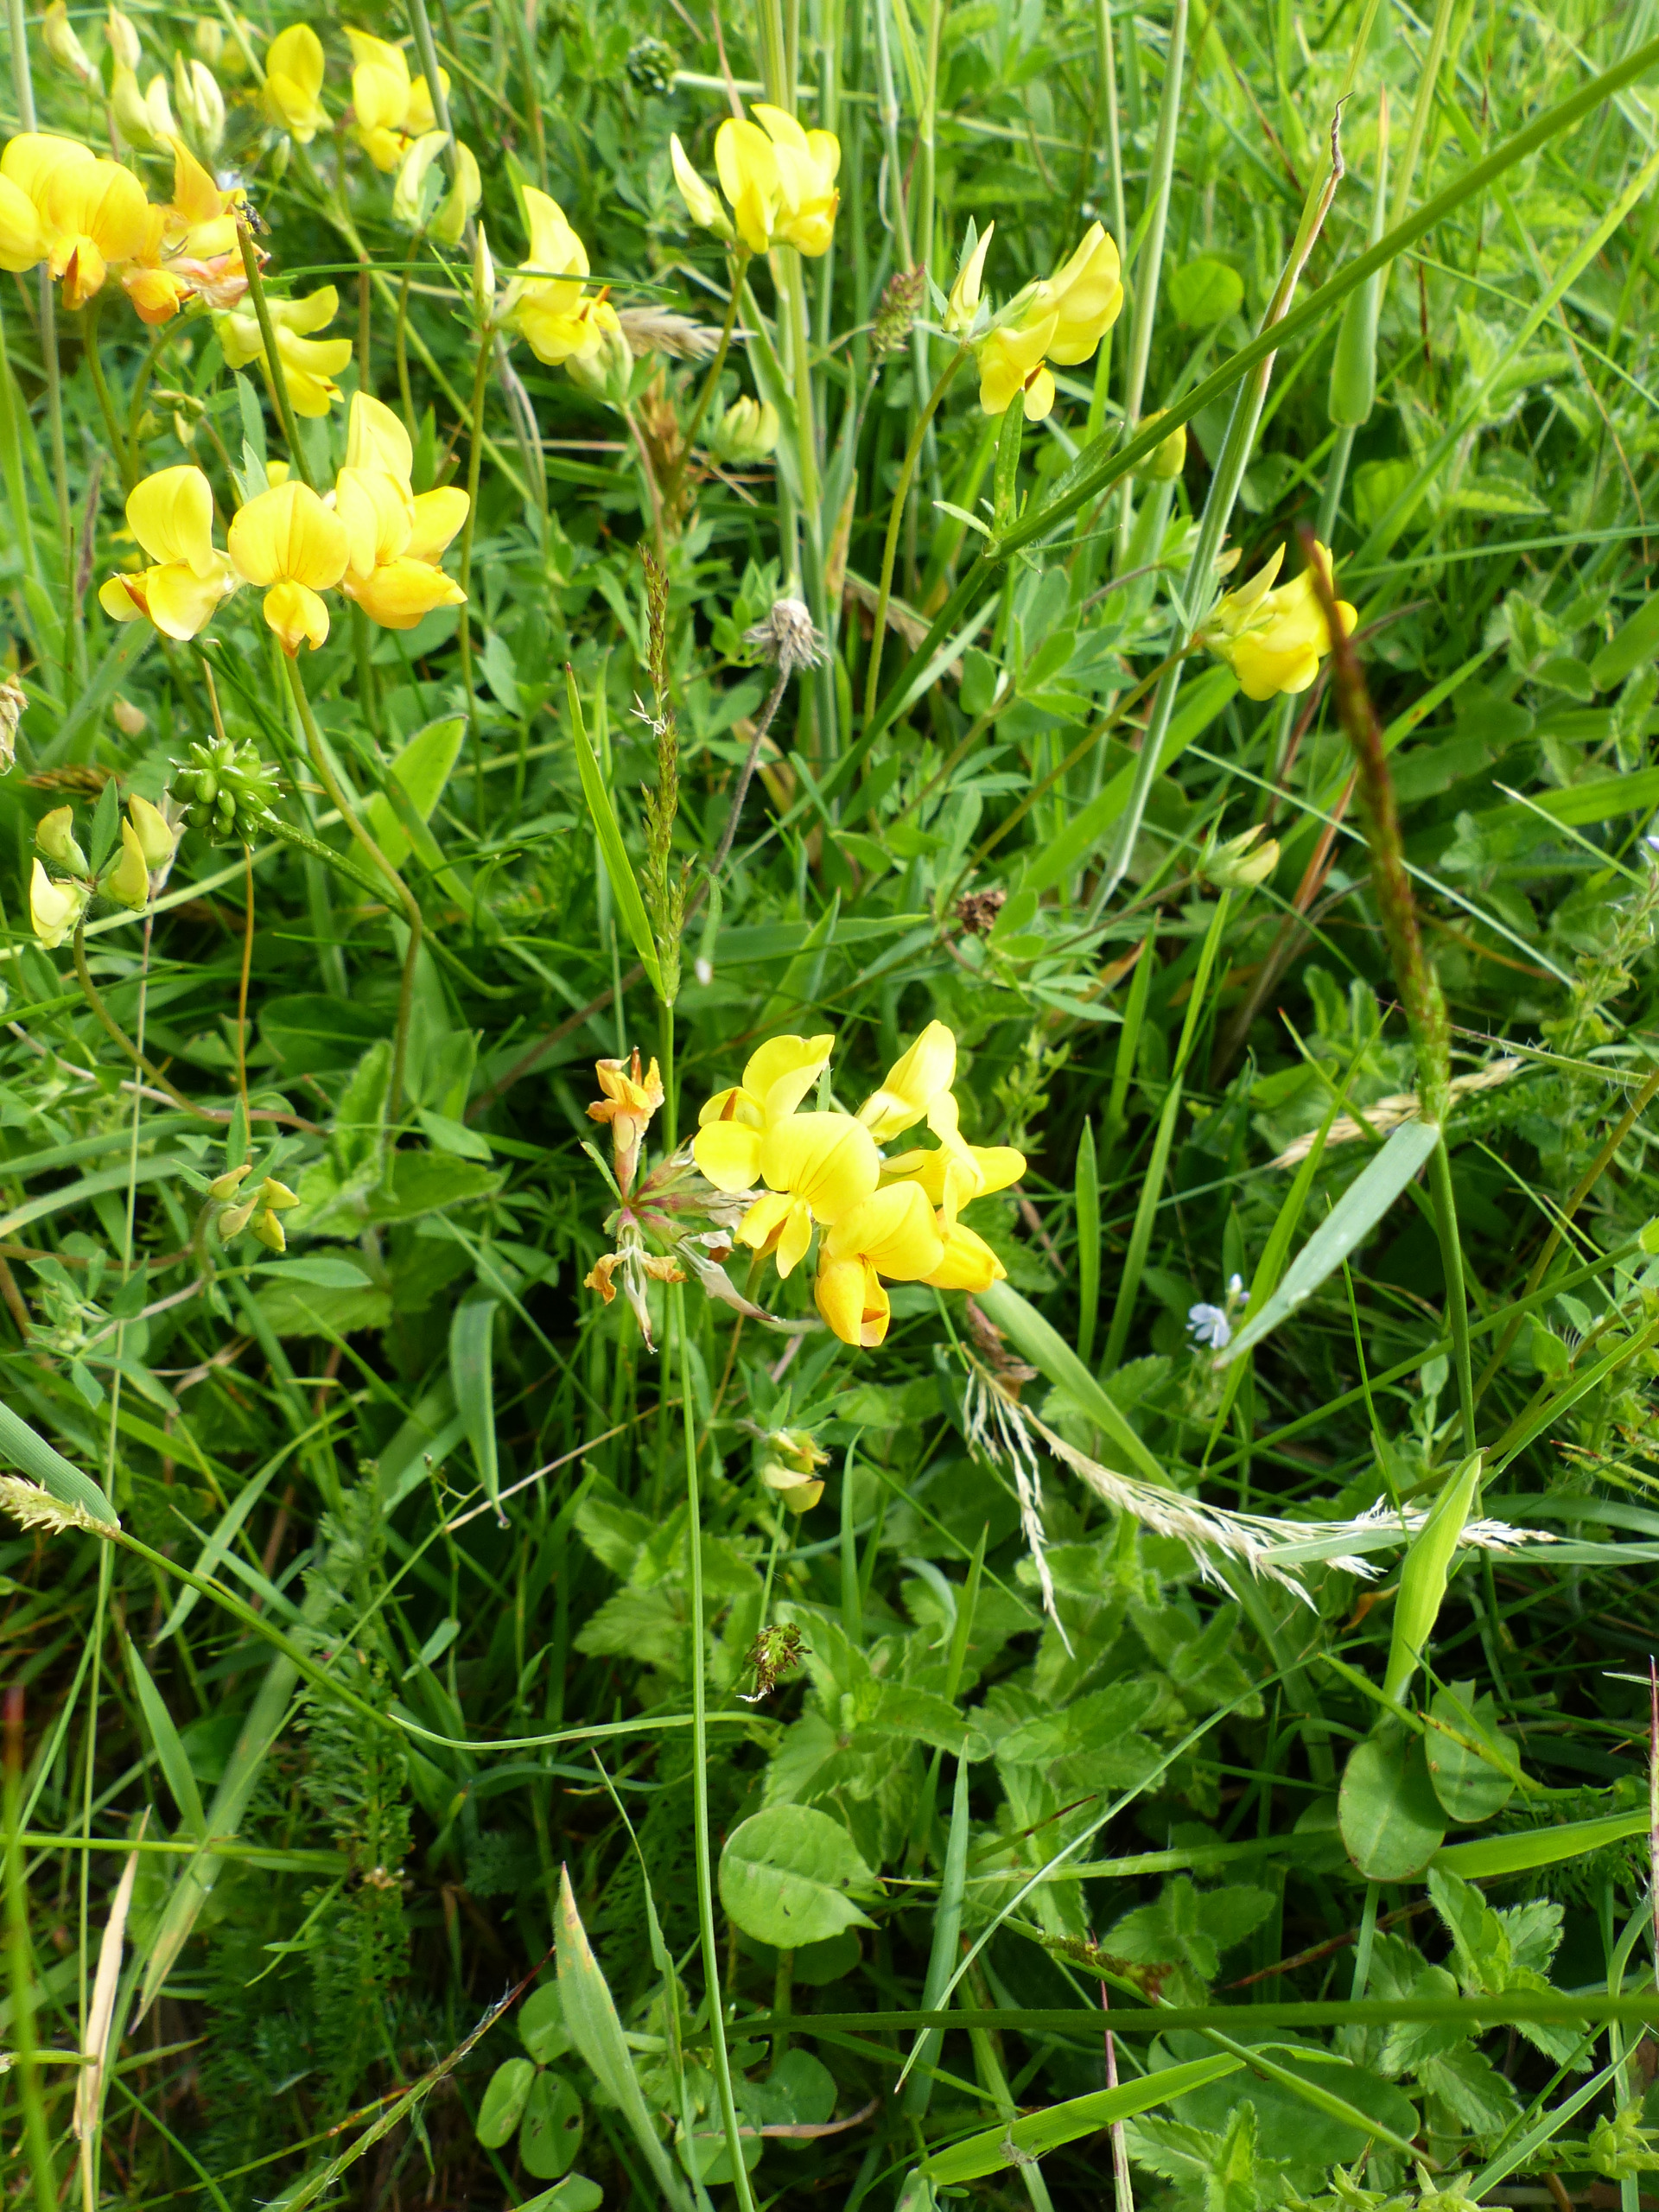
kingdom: Plantae
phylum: Tracheophyta
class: Magnoliopsida
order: Fabales
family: Fabaceae
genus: Lotus
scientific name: Lotus corniculatus
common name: Almindelig kællingetand
